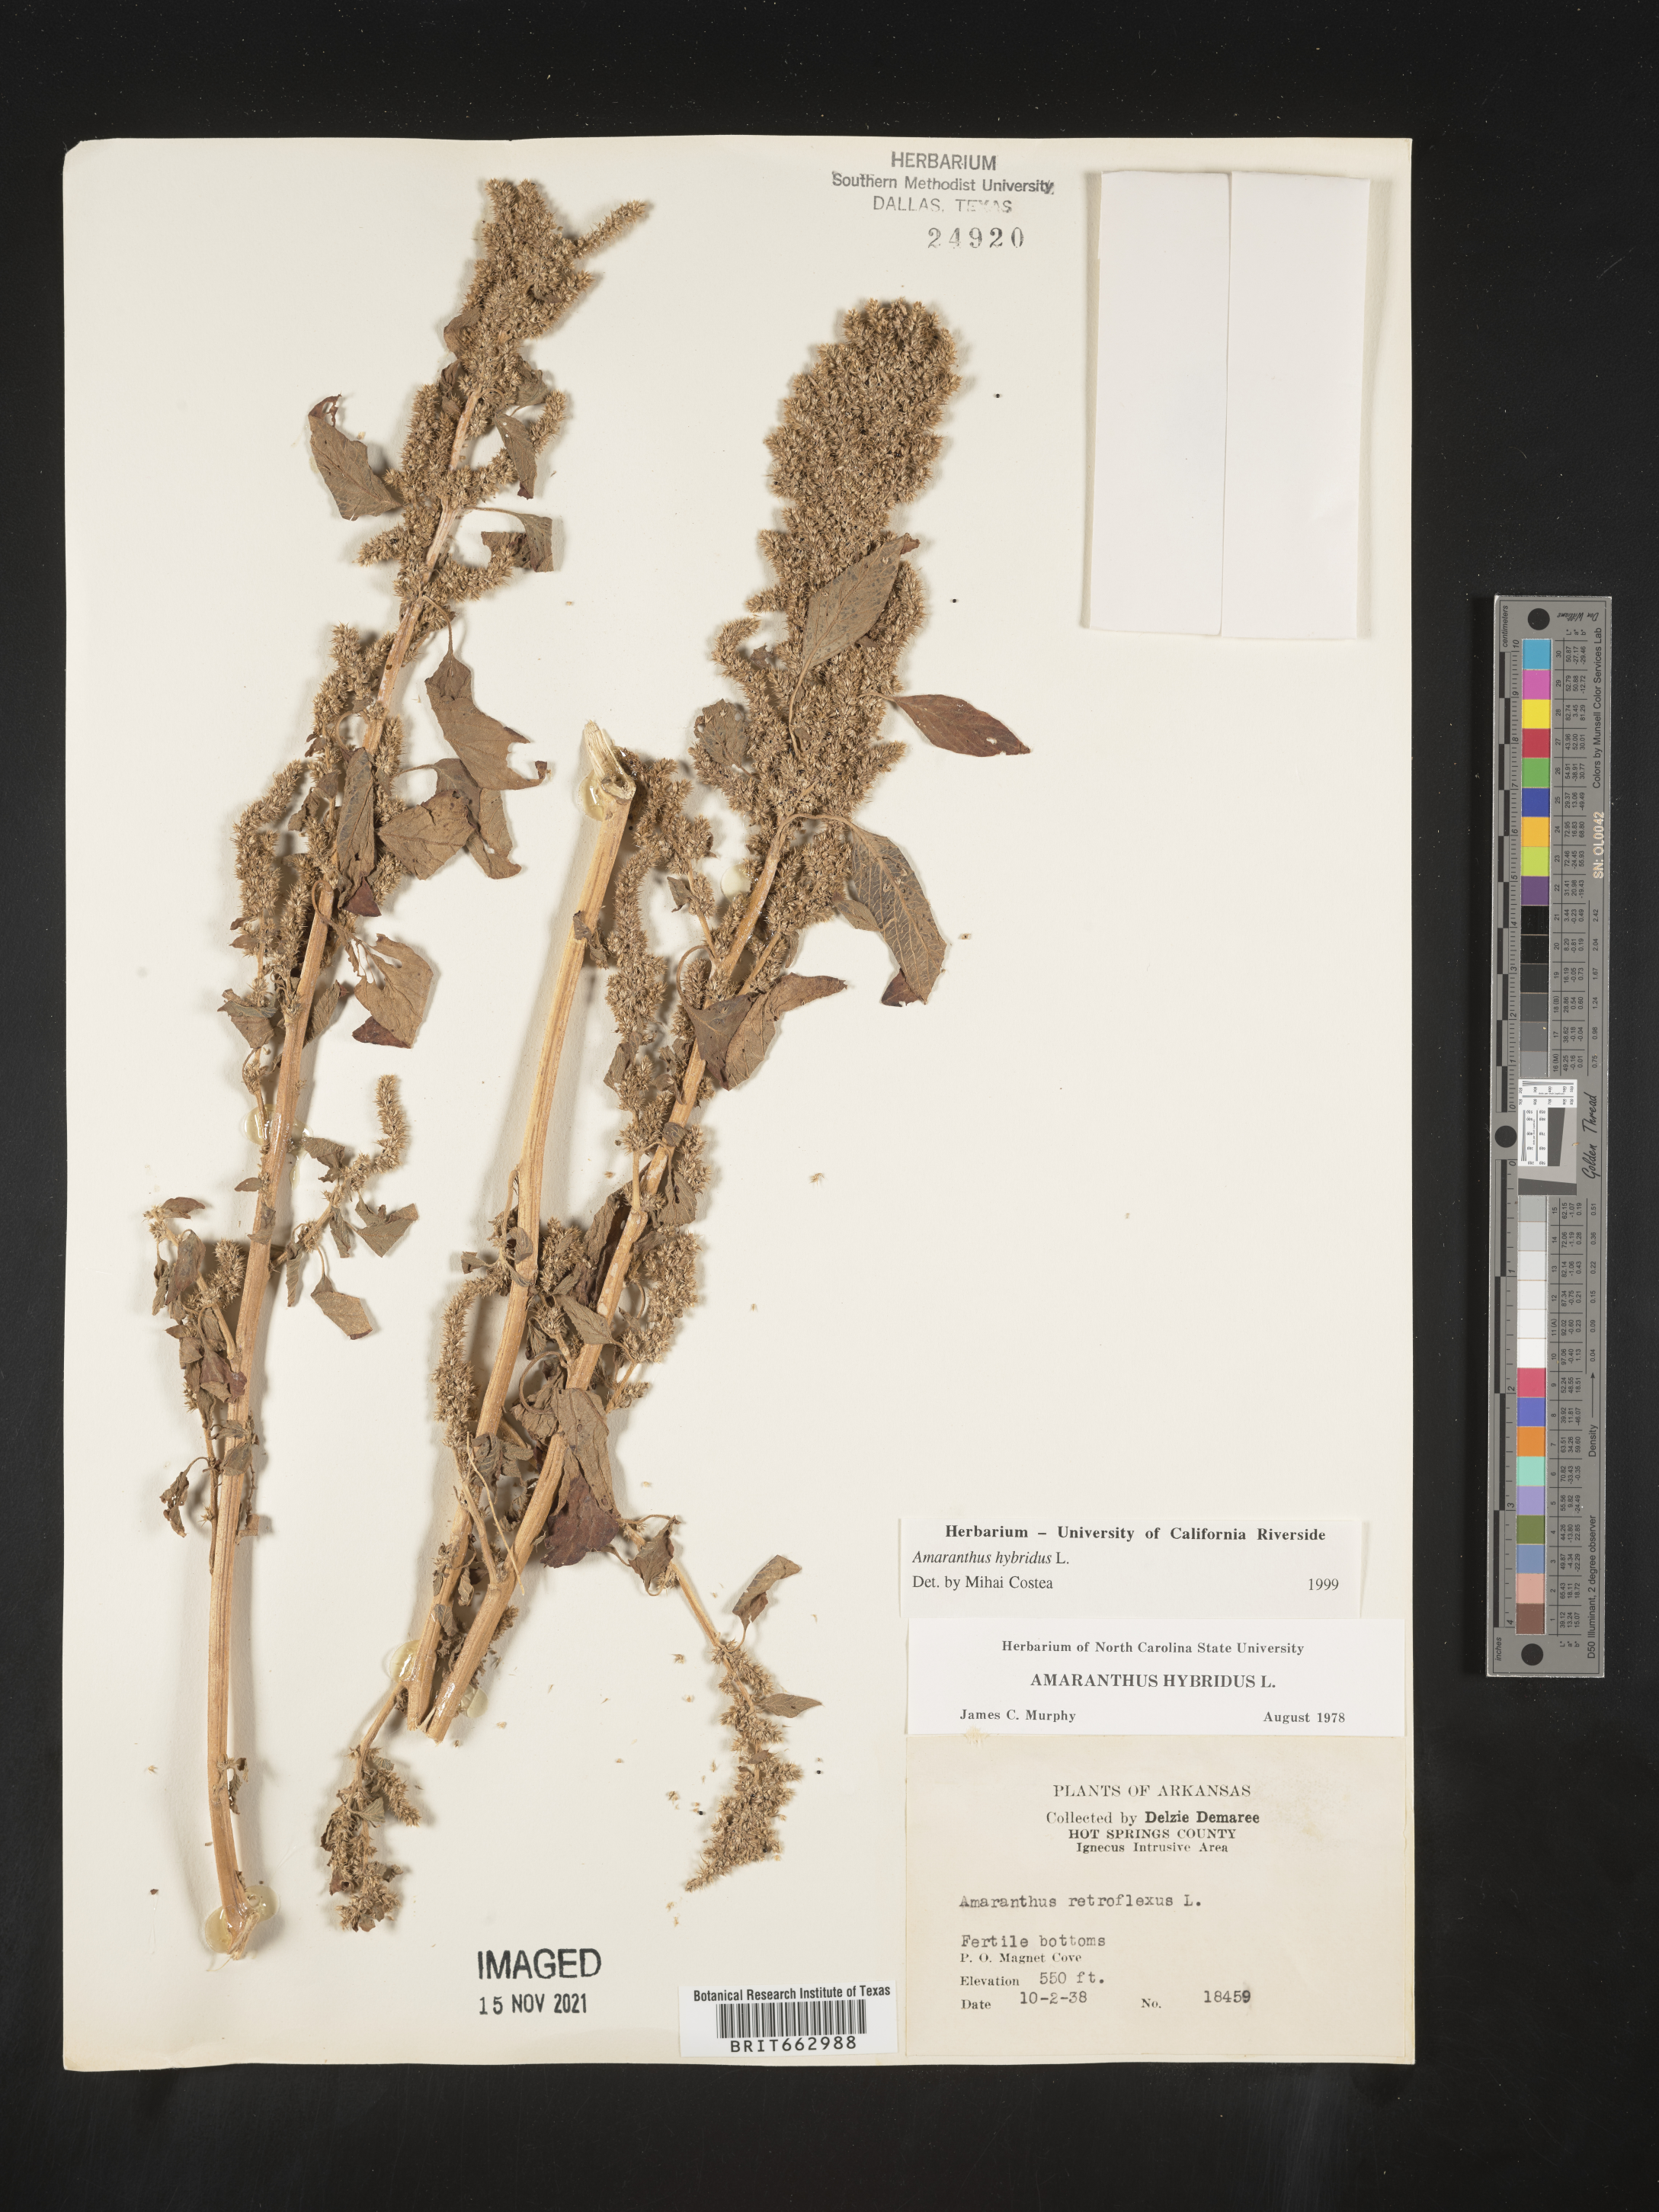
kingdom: Plantae
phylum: Tracheophyta
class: Magnoliopsida
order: Caryophyllales
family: Amaranthaceae
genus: Amaranthus
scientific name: Amaranthus hybridus
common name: Green amaranth
